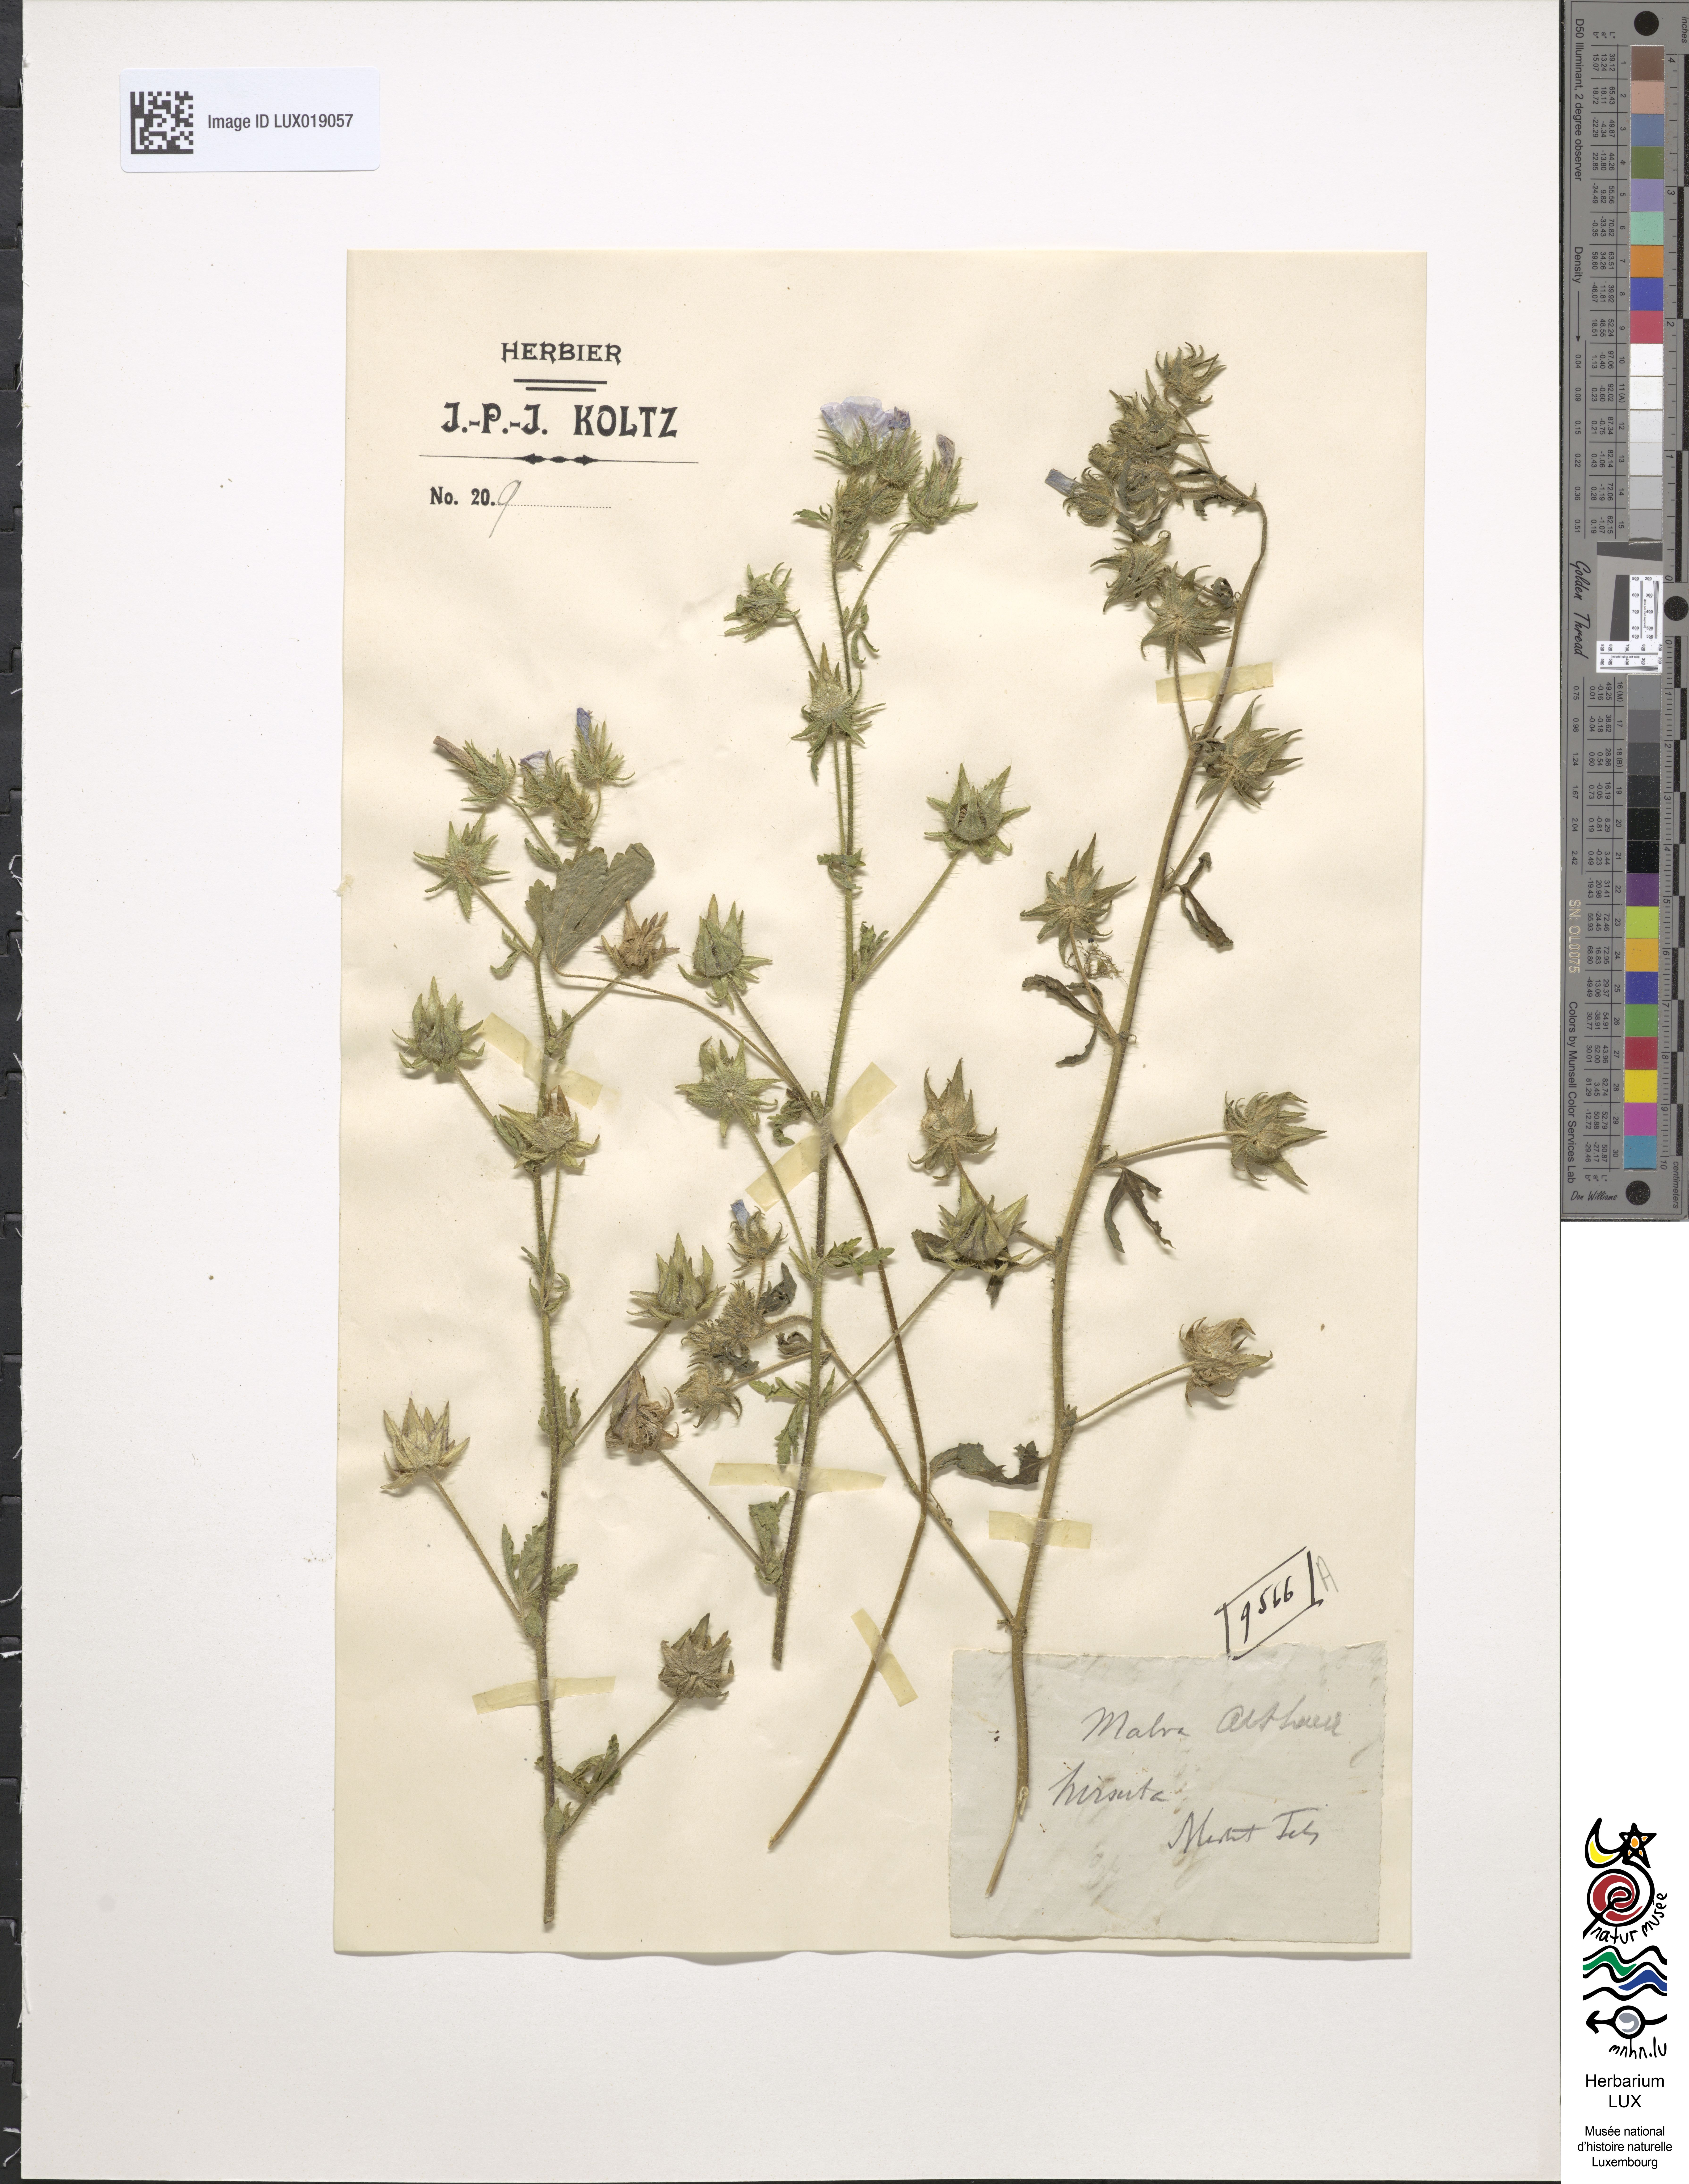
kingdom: Plantae
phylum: Tracheophyta
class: Magnoliopsida
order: Malvales
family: Malvaceae
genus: Althaea
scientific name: Althaea hirsuta
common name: Rough marsh-mallow
